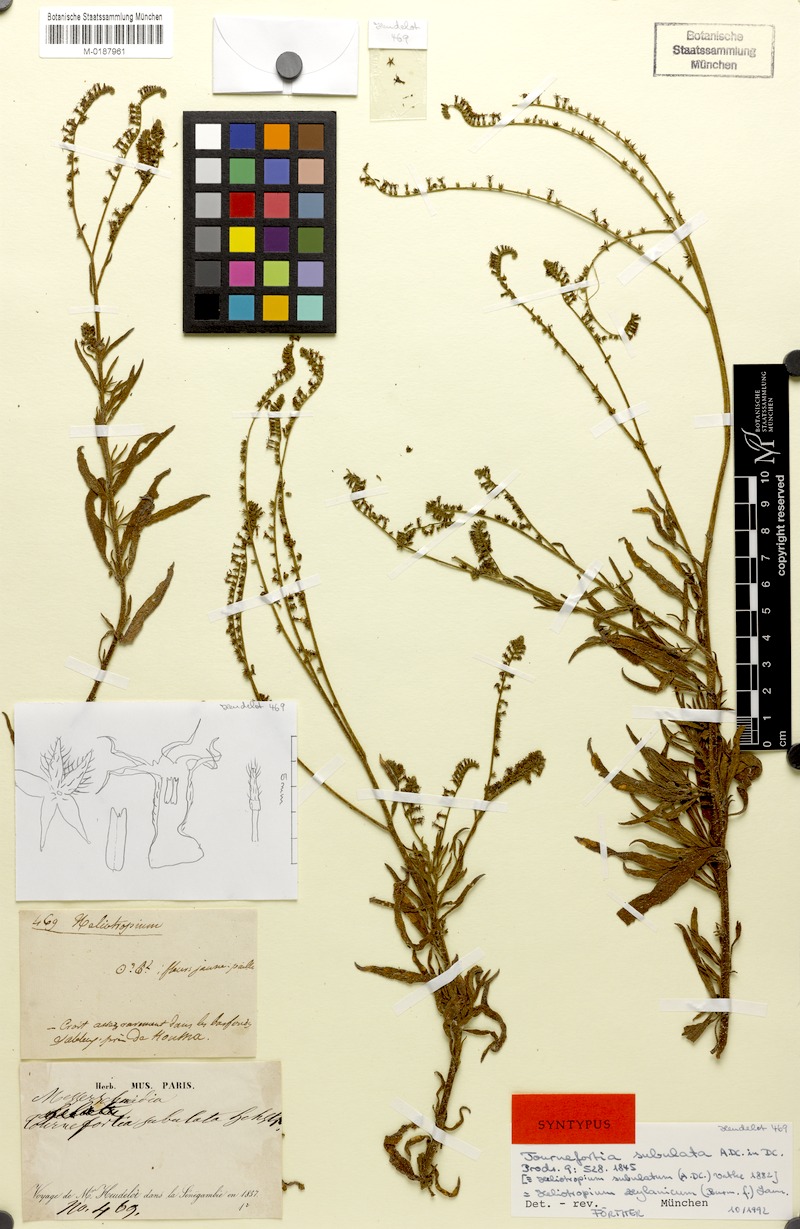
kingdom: Plantae
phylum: Tracheophyta
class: Magnoliopsida
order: Boraginales
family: Heliotropiaceae
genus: Heliotropium
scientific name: Heliotropium zeylanicum
